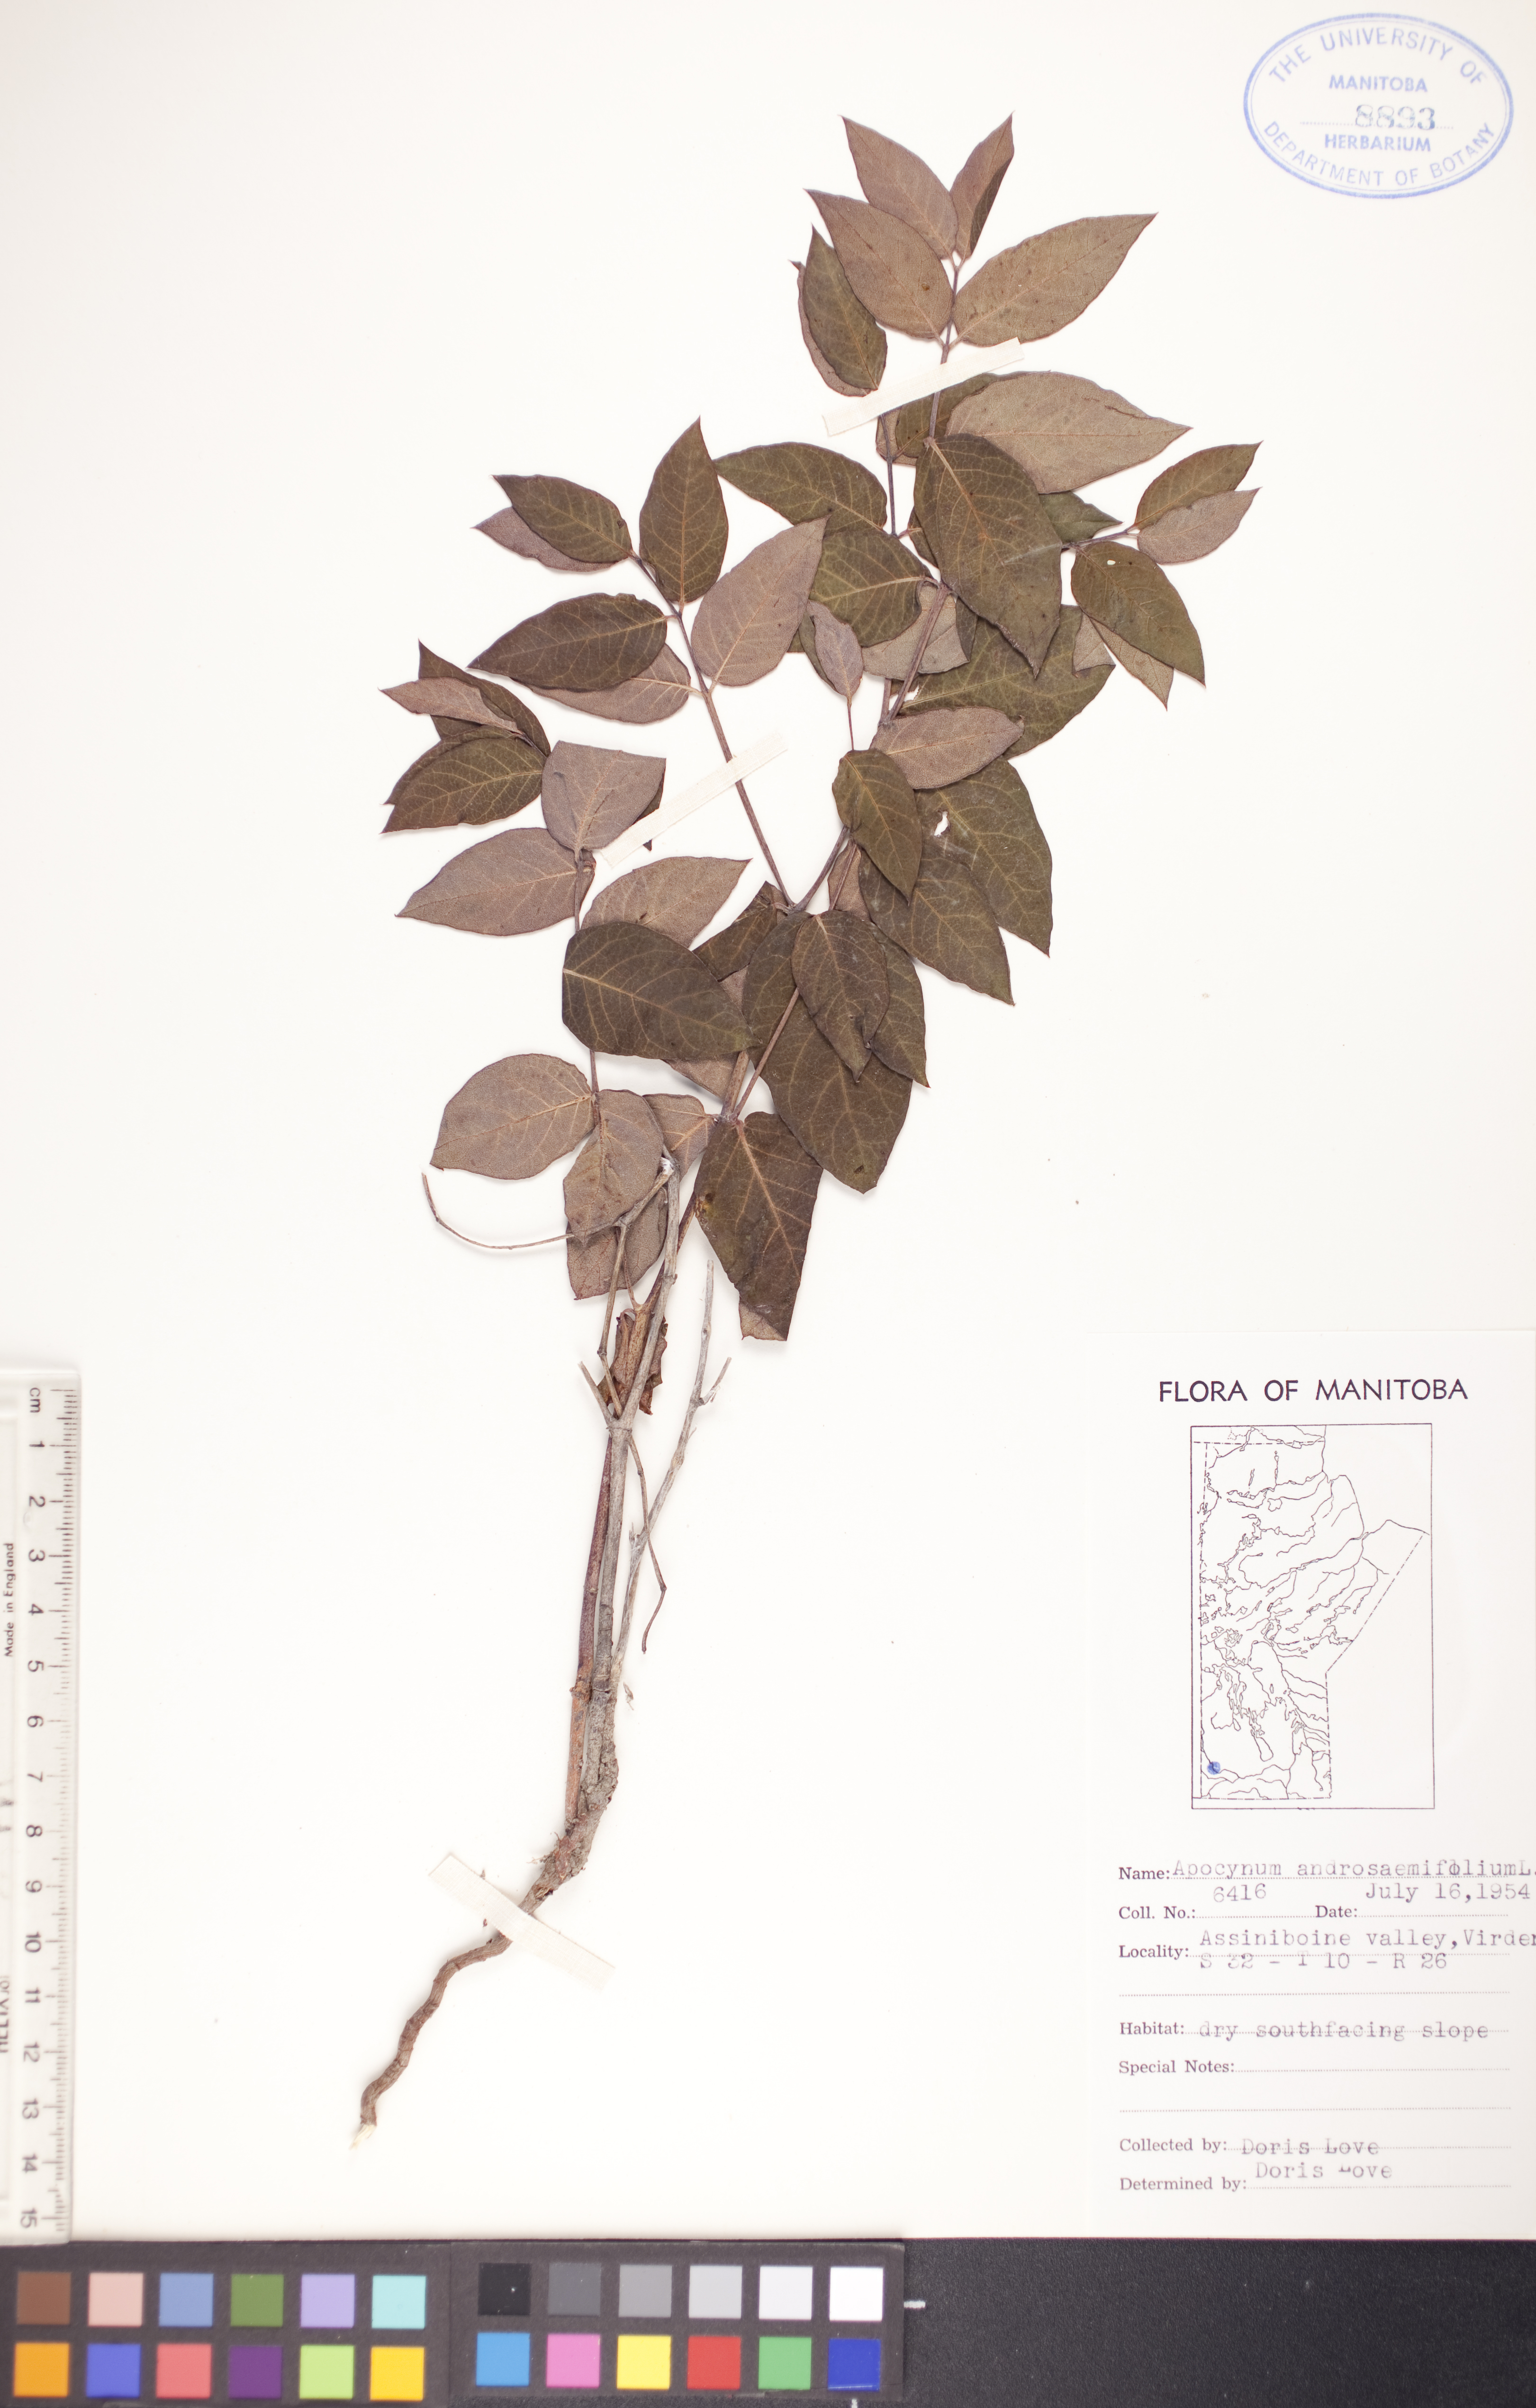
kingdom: Plantae
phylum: Tracheophyta
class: Magnoliopsida
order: Gentianales
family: Apocynaceae
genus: Apocynum
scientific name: Apocynum androsaemifolium
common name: Spreading dogbane
